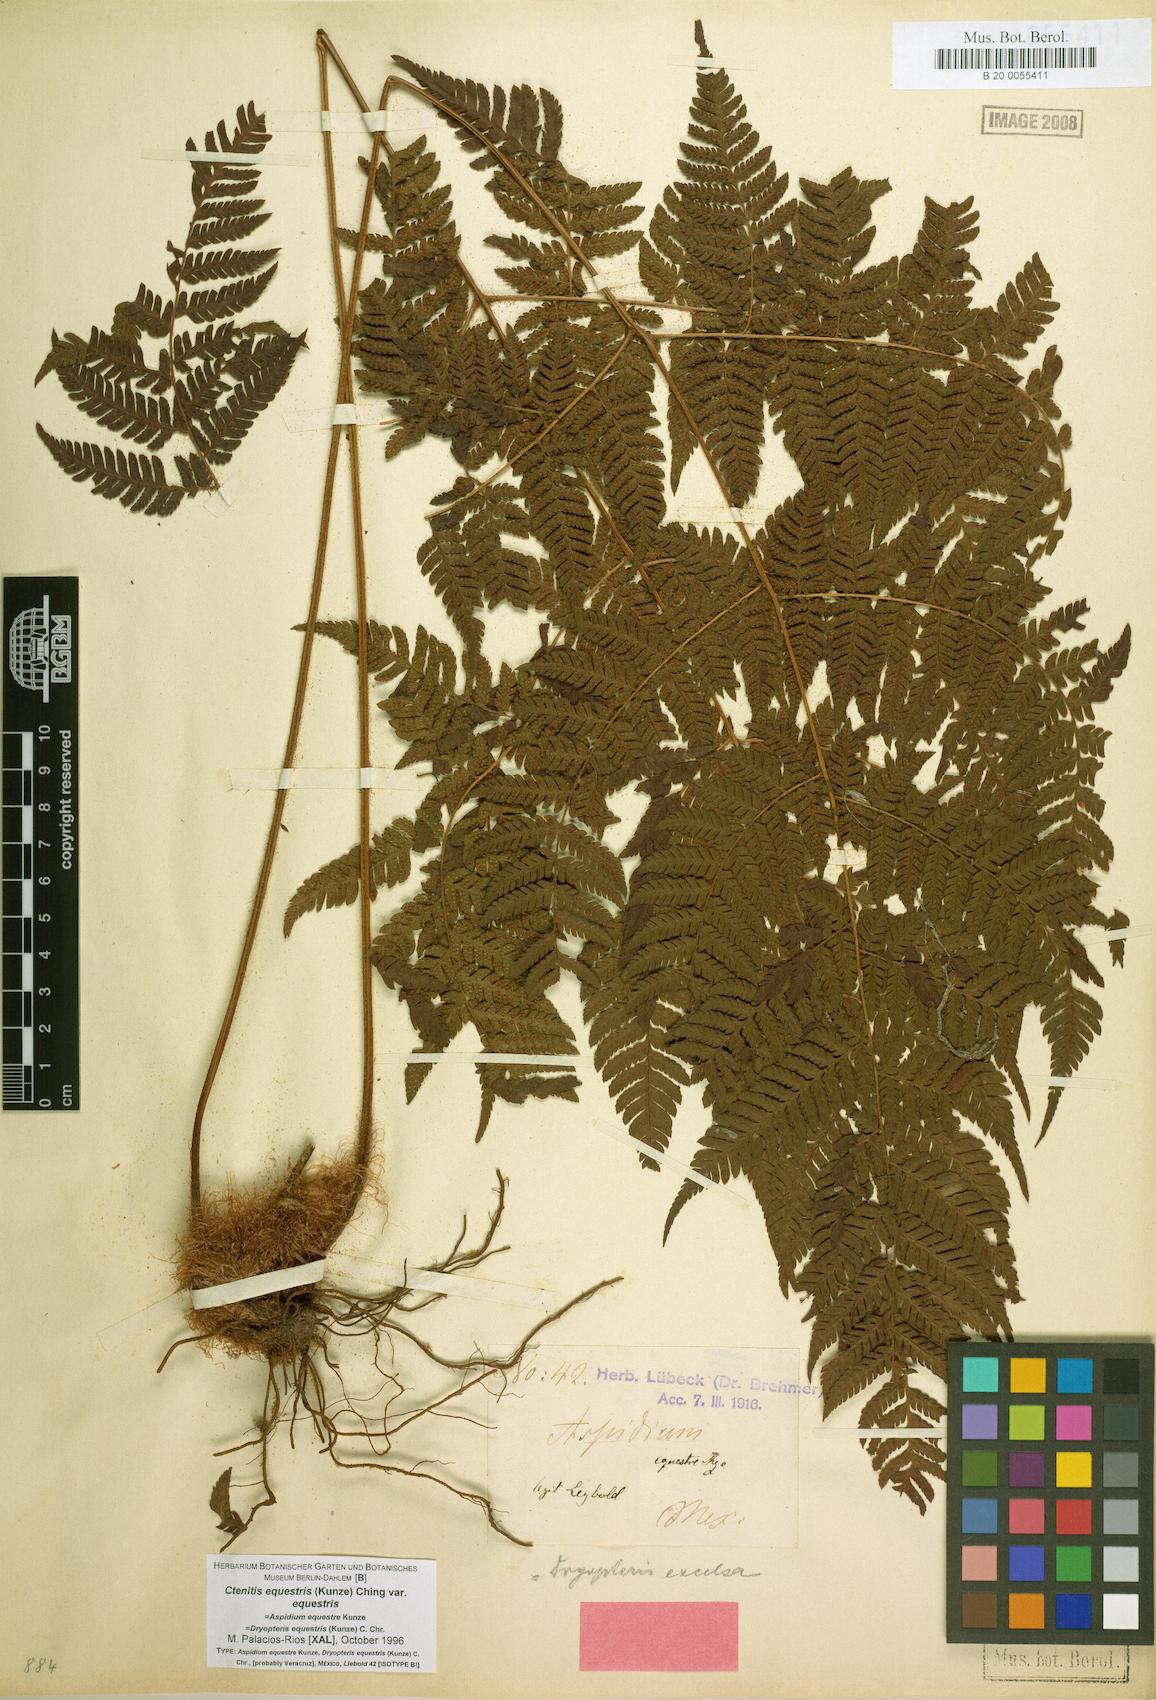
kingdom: Plantae
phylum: Tracheophyta
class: Polypodiopsida
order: Polypodiales
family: Dryopteridaceae
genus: Ctenitis
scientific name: Ctenitis equestris
